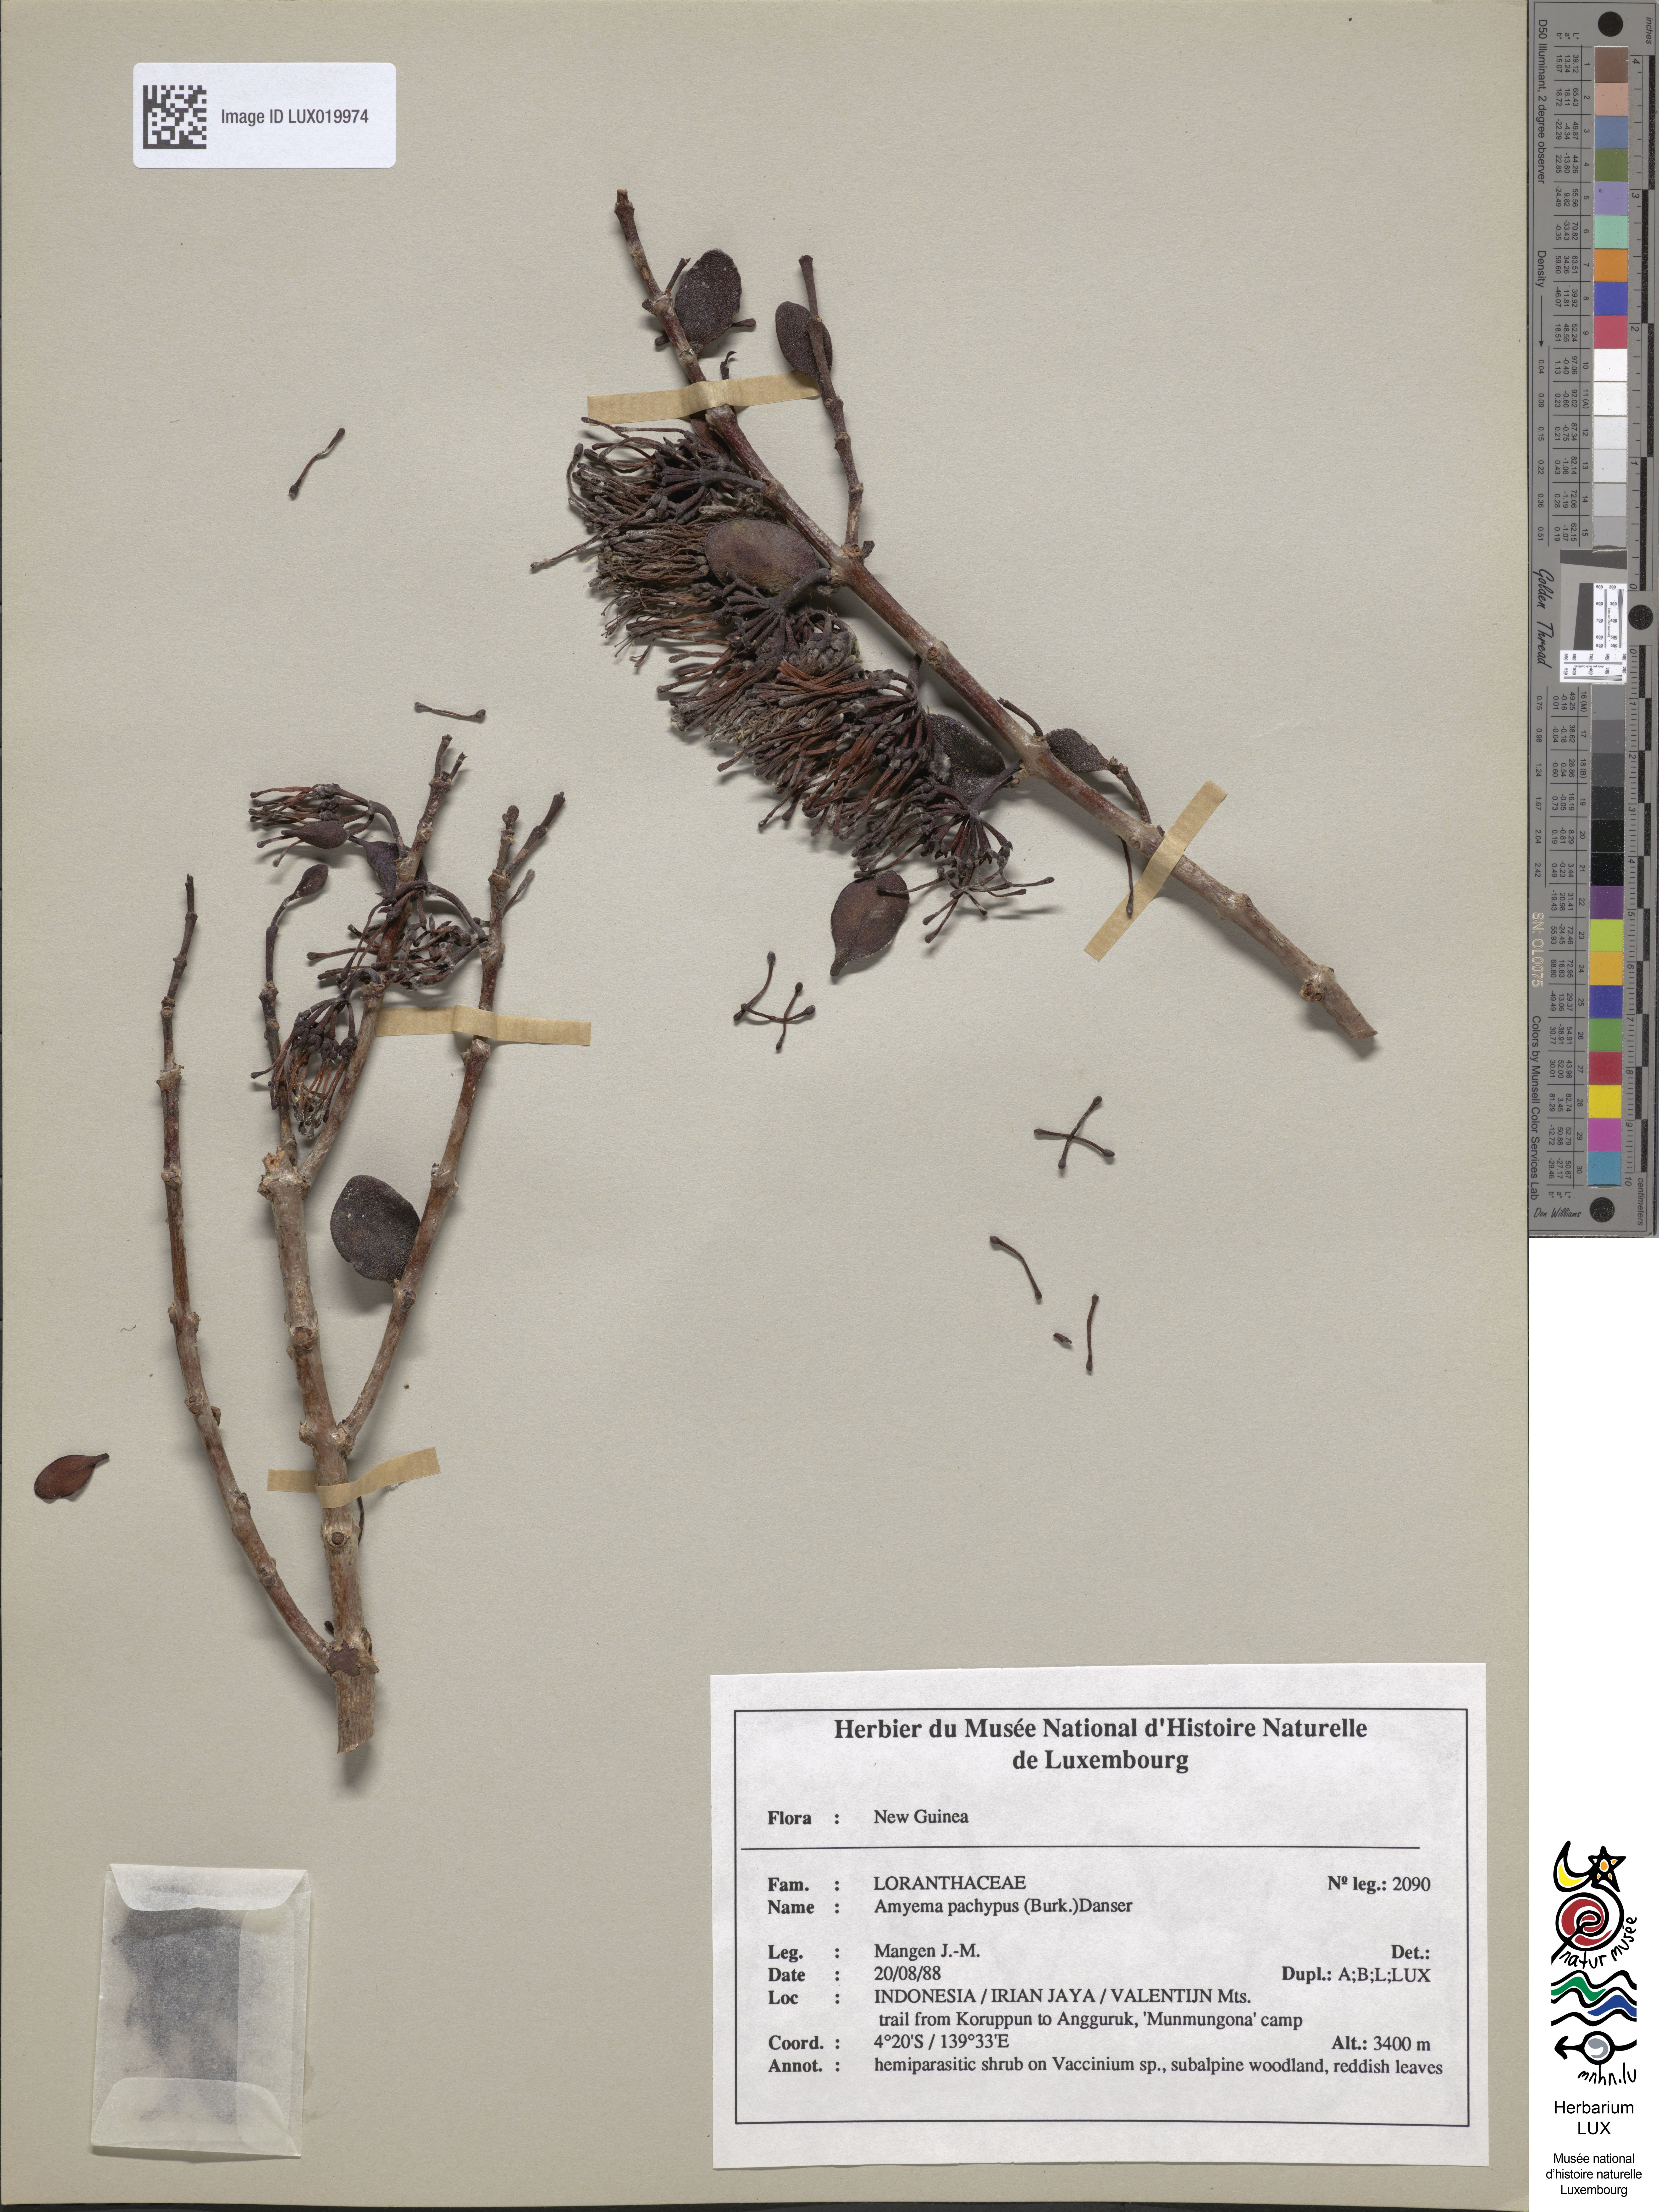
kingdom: Plantae
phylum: Tracheophyta
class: Magnoliopsida
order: Santalales
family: Loranthaceae
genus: Amyema
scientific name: Amyema pachypus
